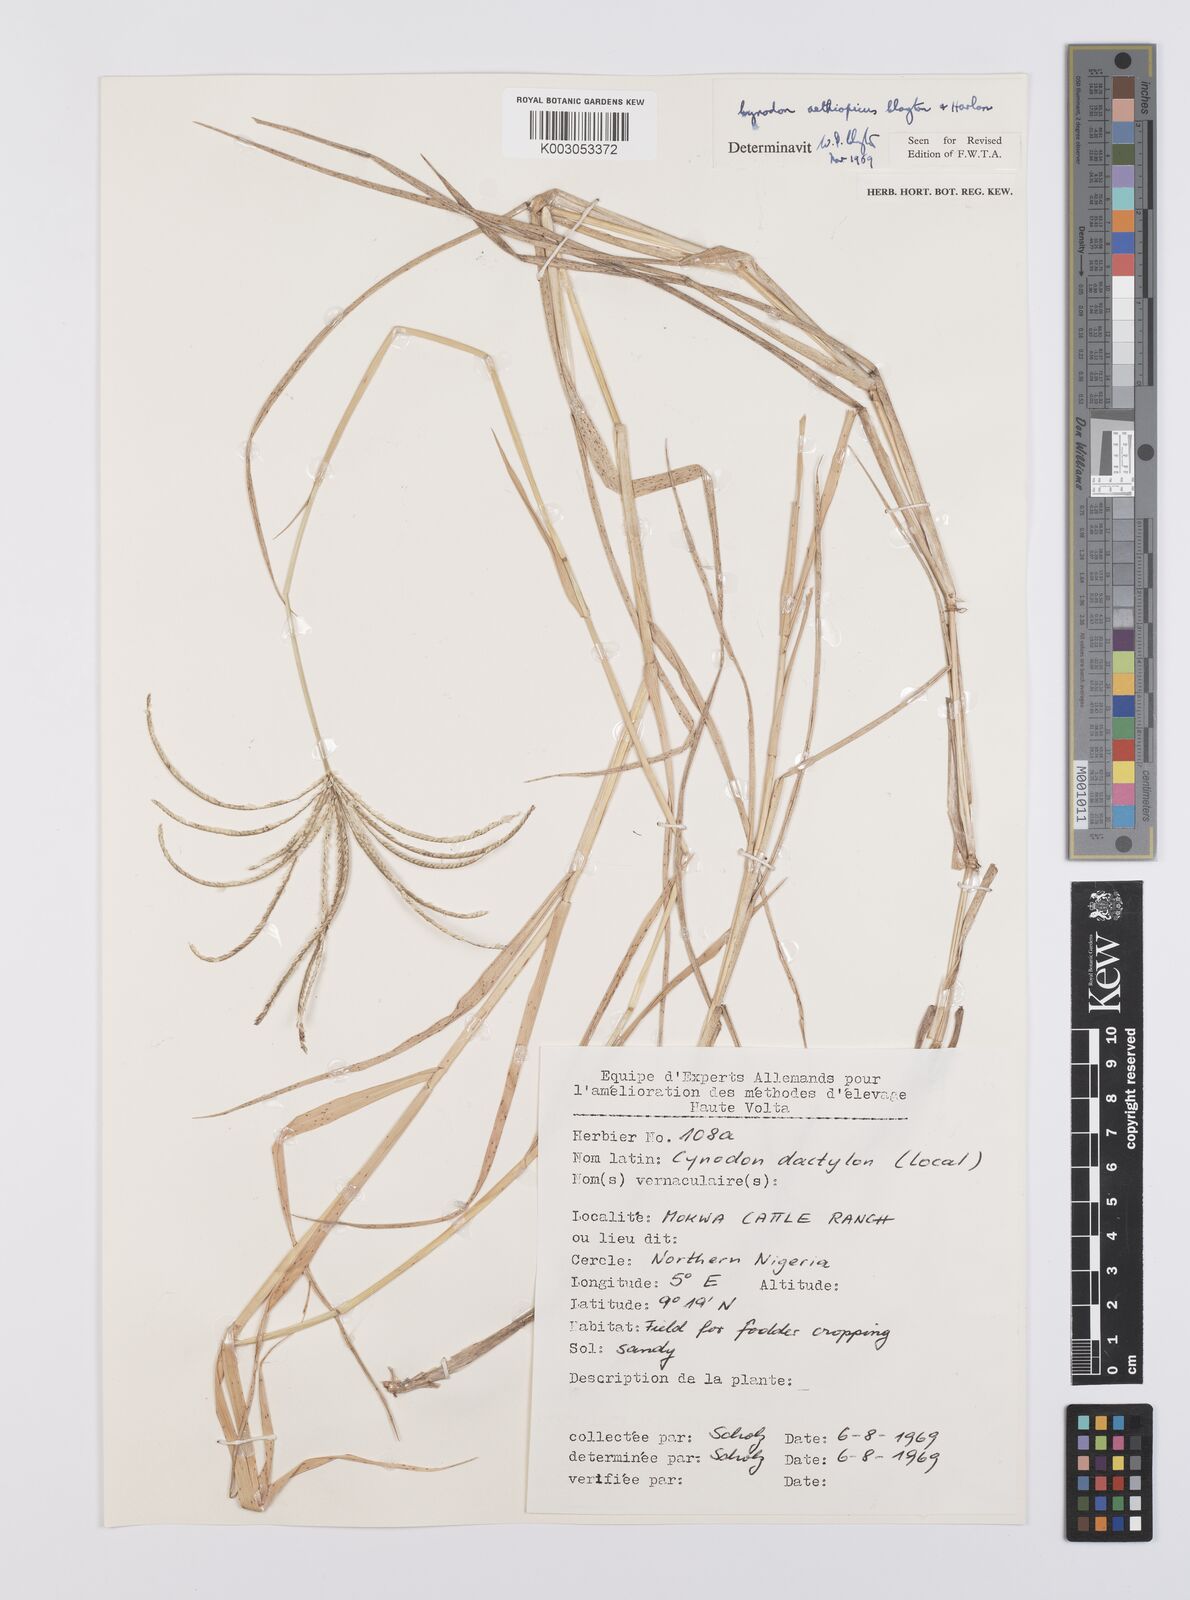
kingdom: Plantae
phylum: Tracheophyta
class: Liliopsida
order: Poales
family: Poaceae
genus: Cynodon
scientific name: Cynodon aethiopicus
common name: Ethiopian dogstooth grass
